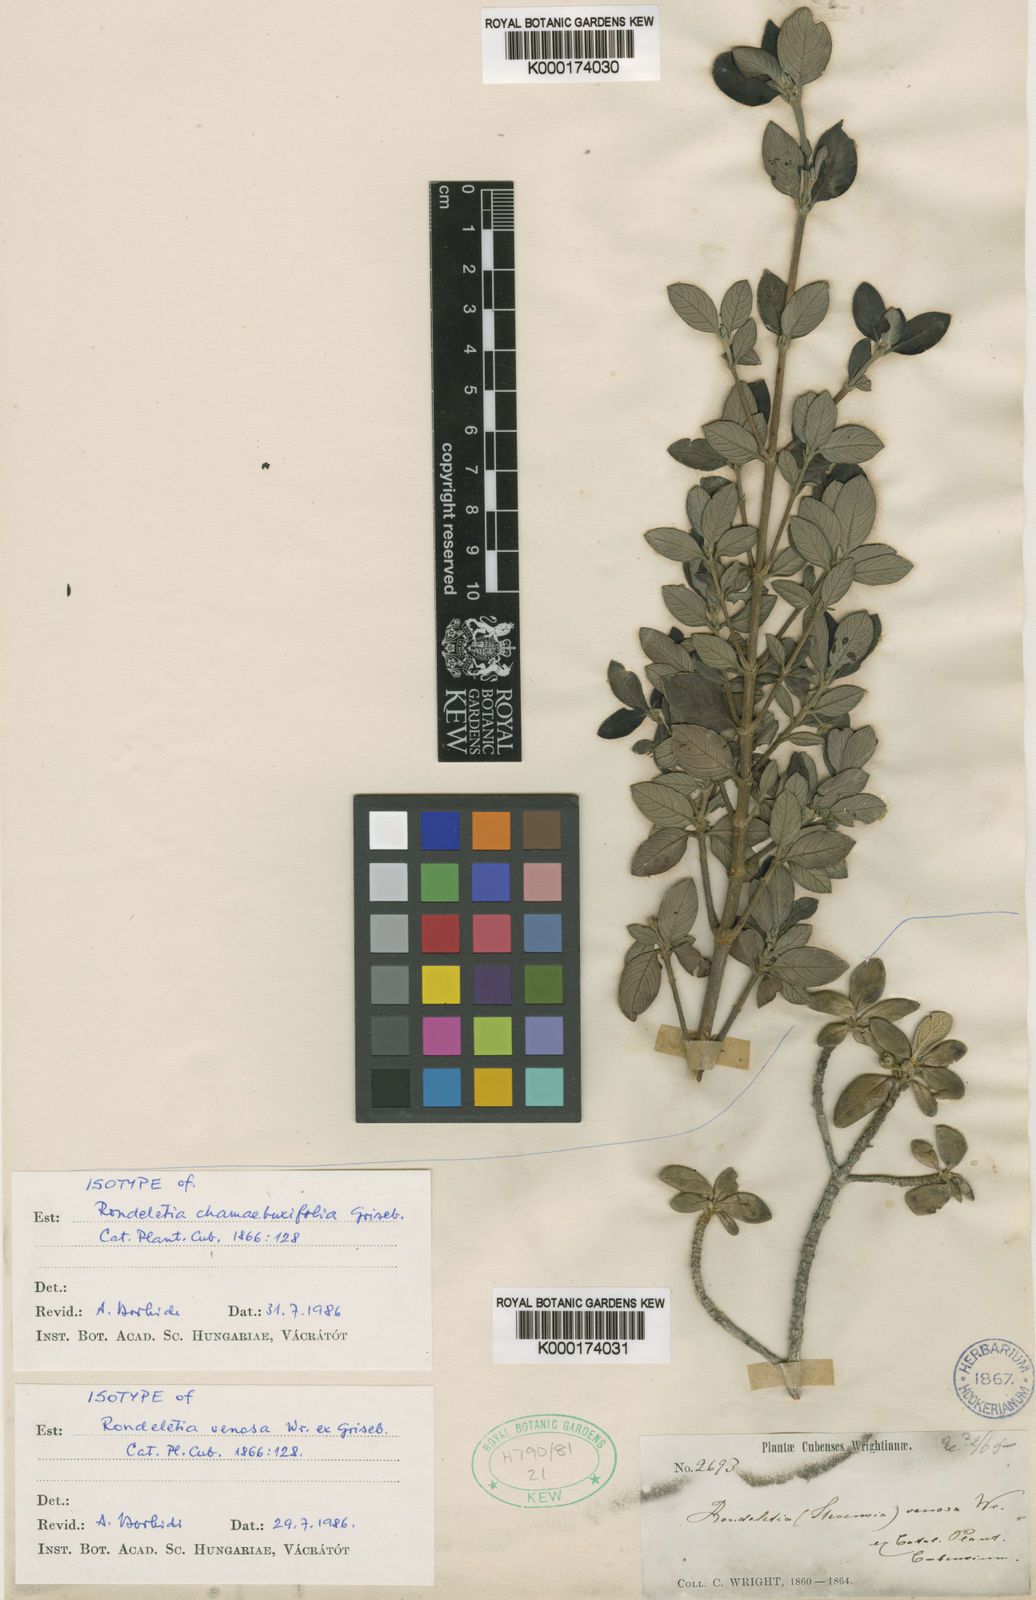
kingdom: Plantae
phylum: Tracheophyta
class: Magnoliopsida
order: Gentianales
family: Rubiaceae
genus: Rondeletia
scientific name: Rondeletia venosa
